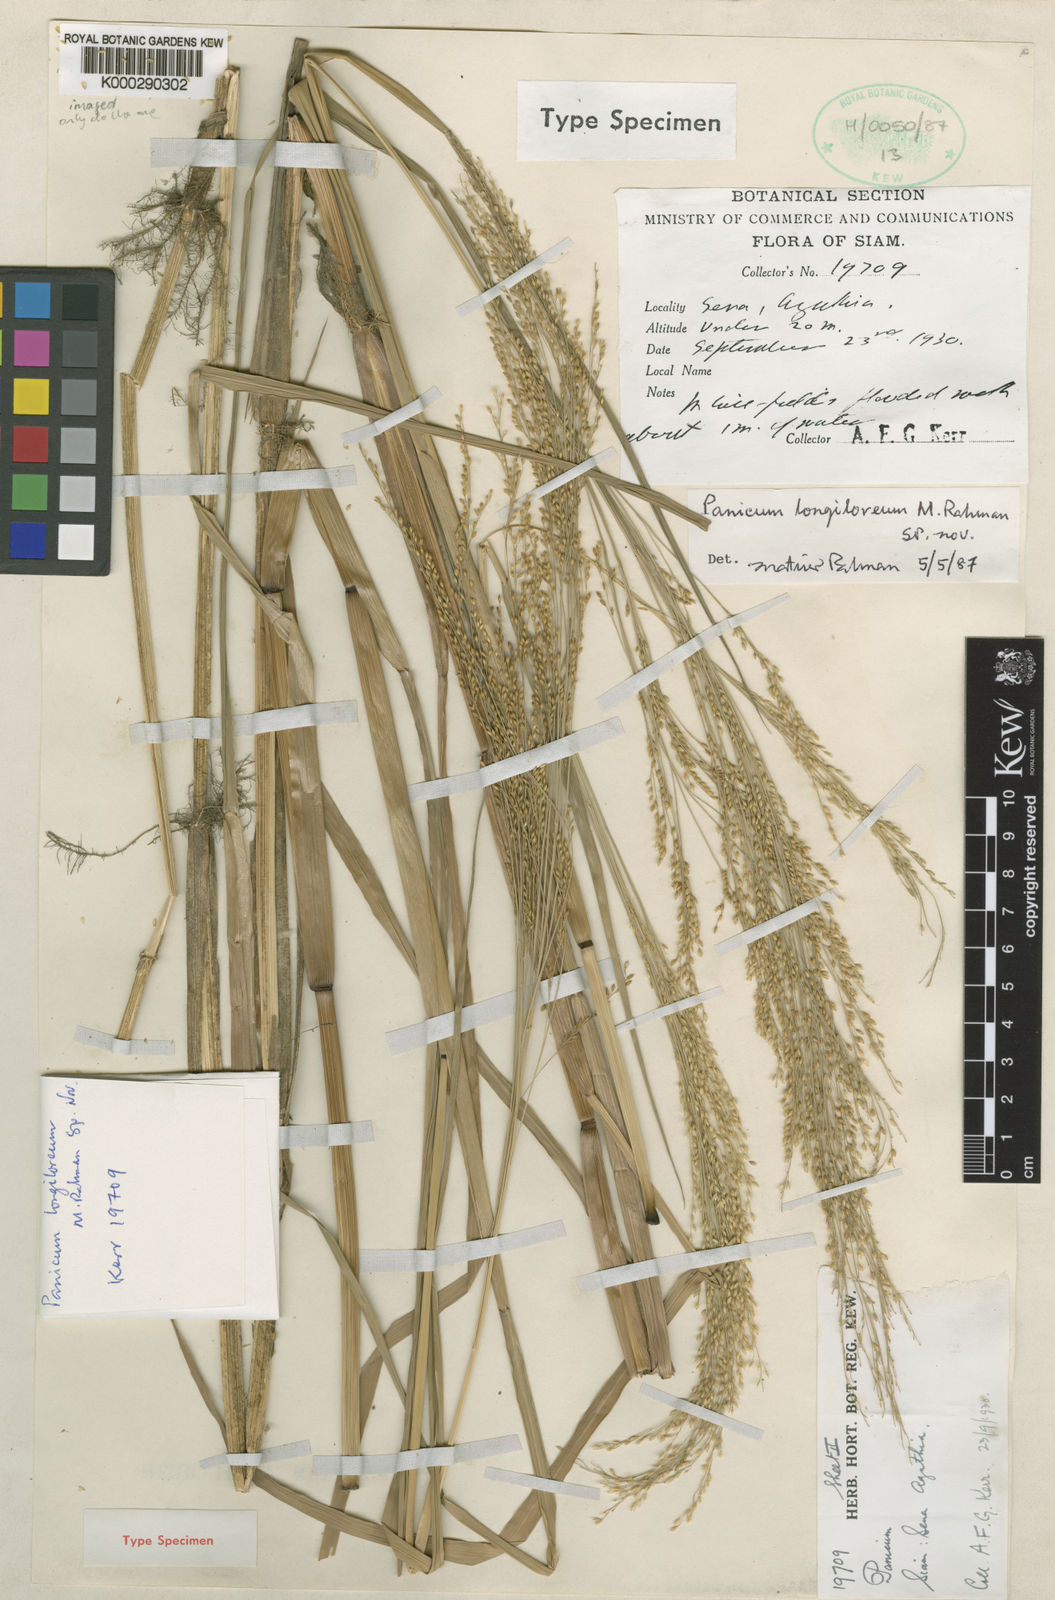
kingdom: Plantae
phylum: Tracheophyta
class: Liliopsida
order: Poales
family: Poaceae
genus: Panicum
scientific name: Panicum longiloreum
